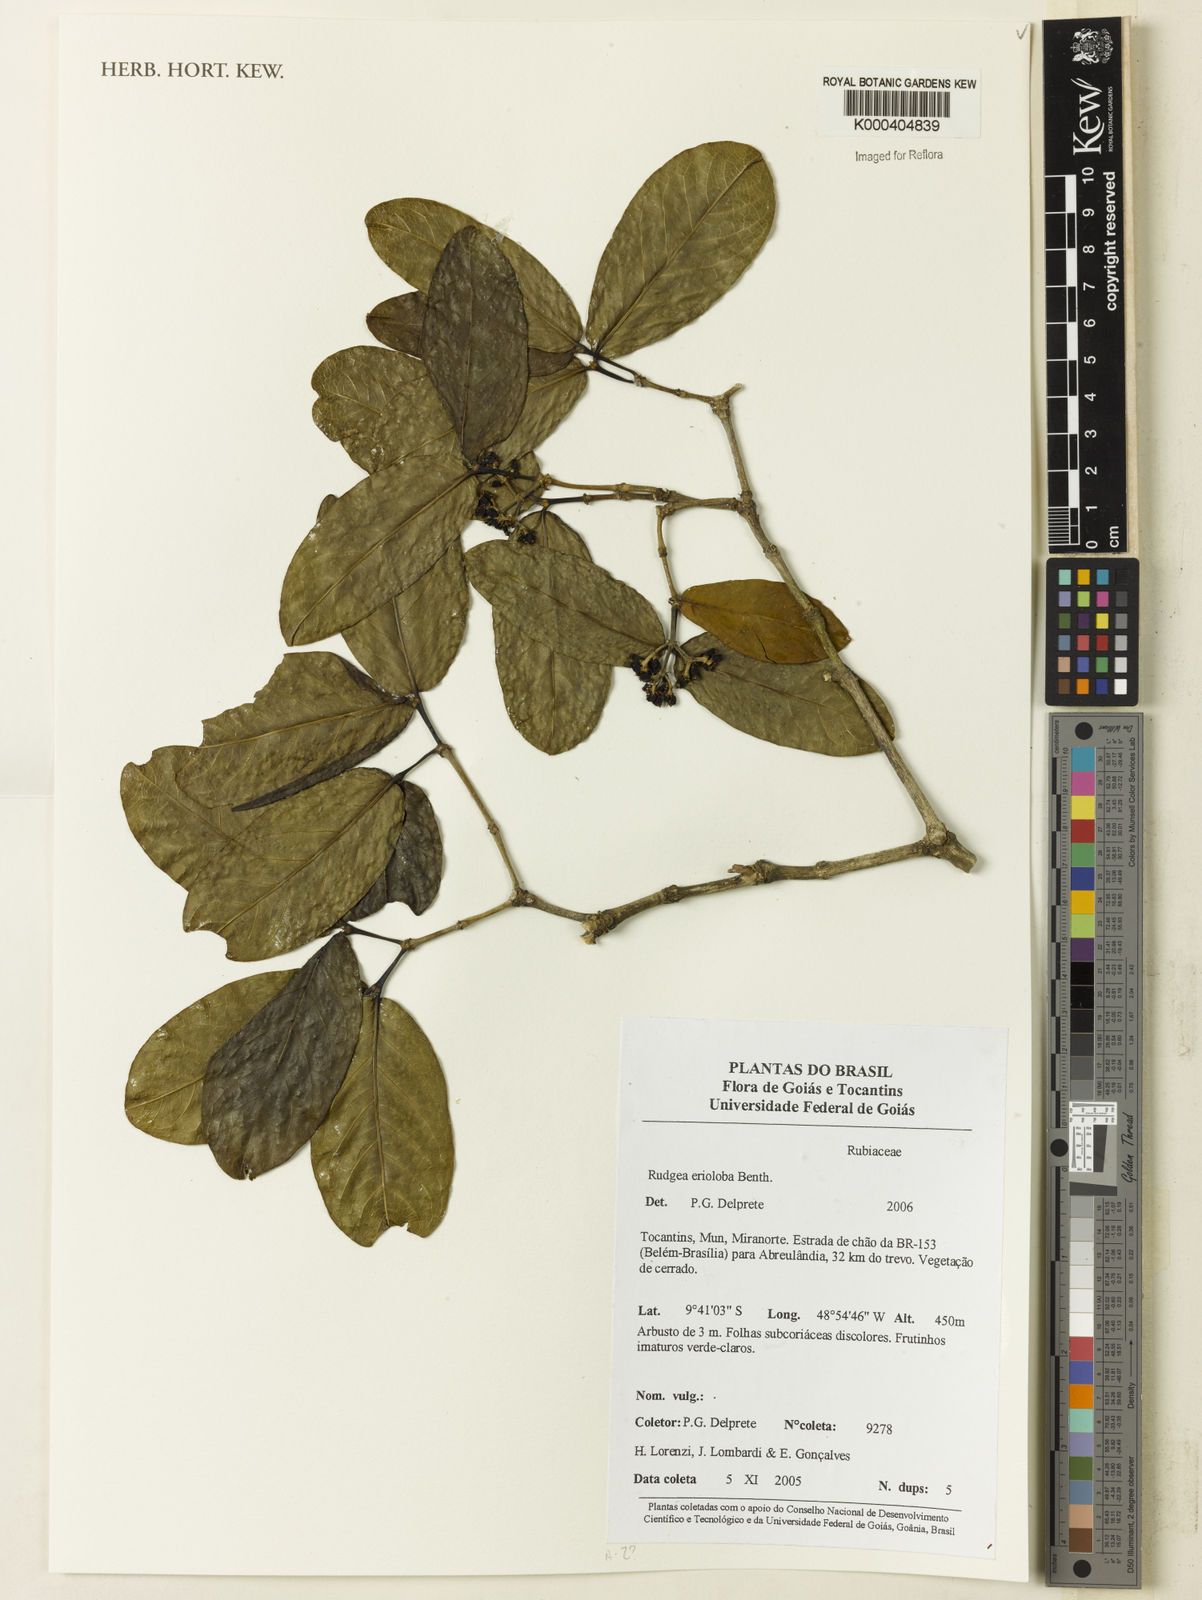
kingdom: Plantae
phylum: Tracheophyta
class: Magnoliopsida
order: Gentianales
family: Rubiaceae
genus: Rudgea
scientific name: Rudgea erioloba
